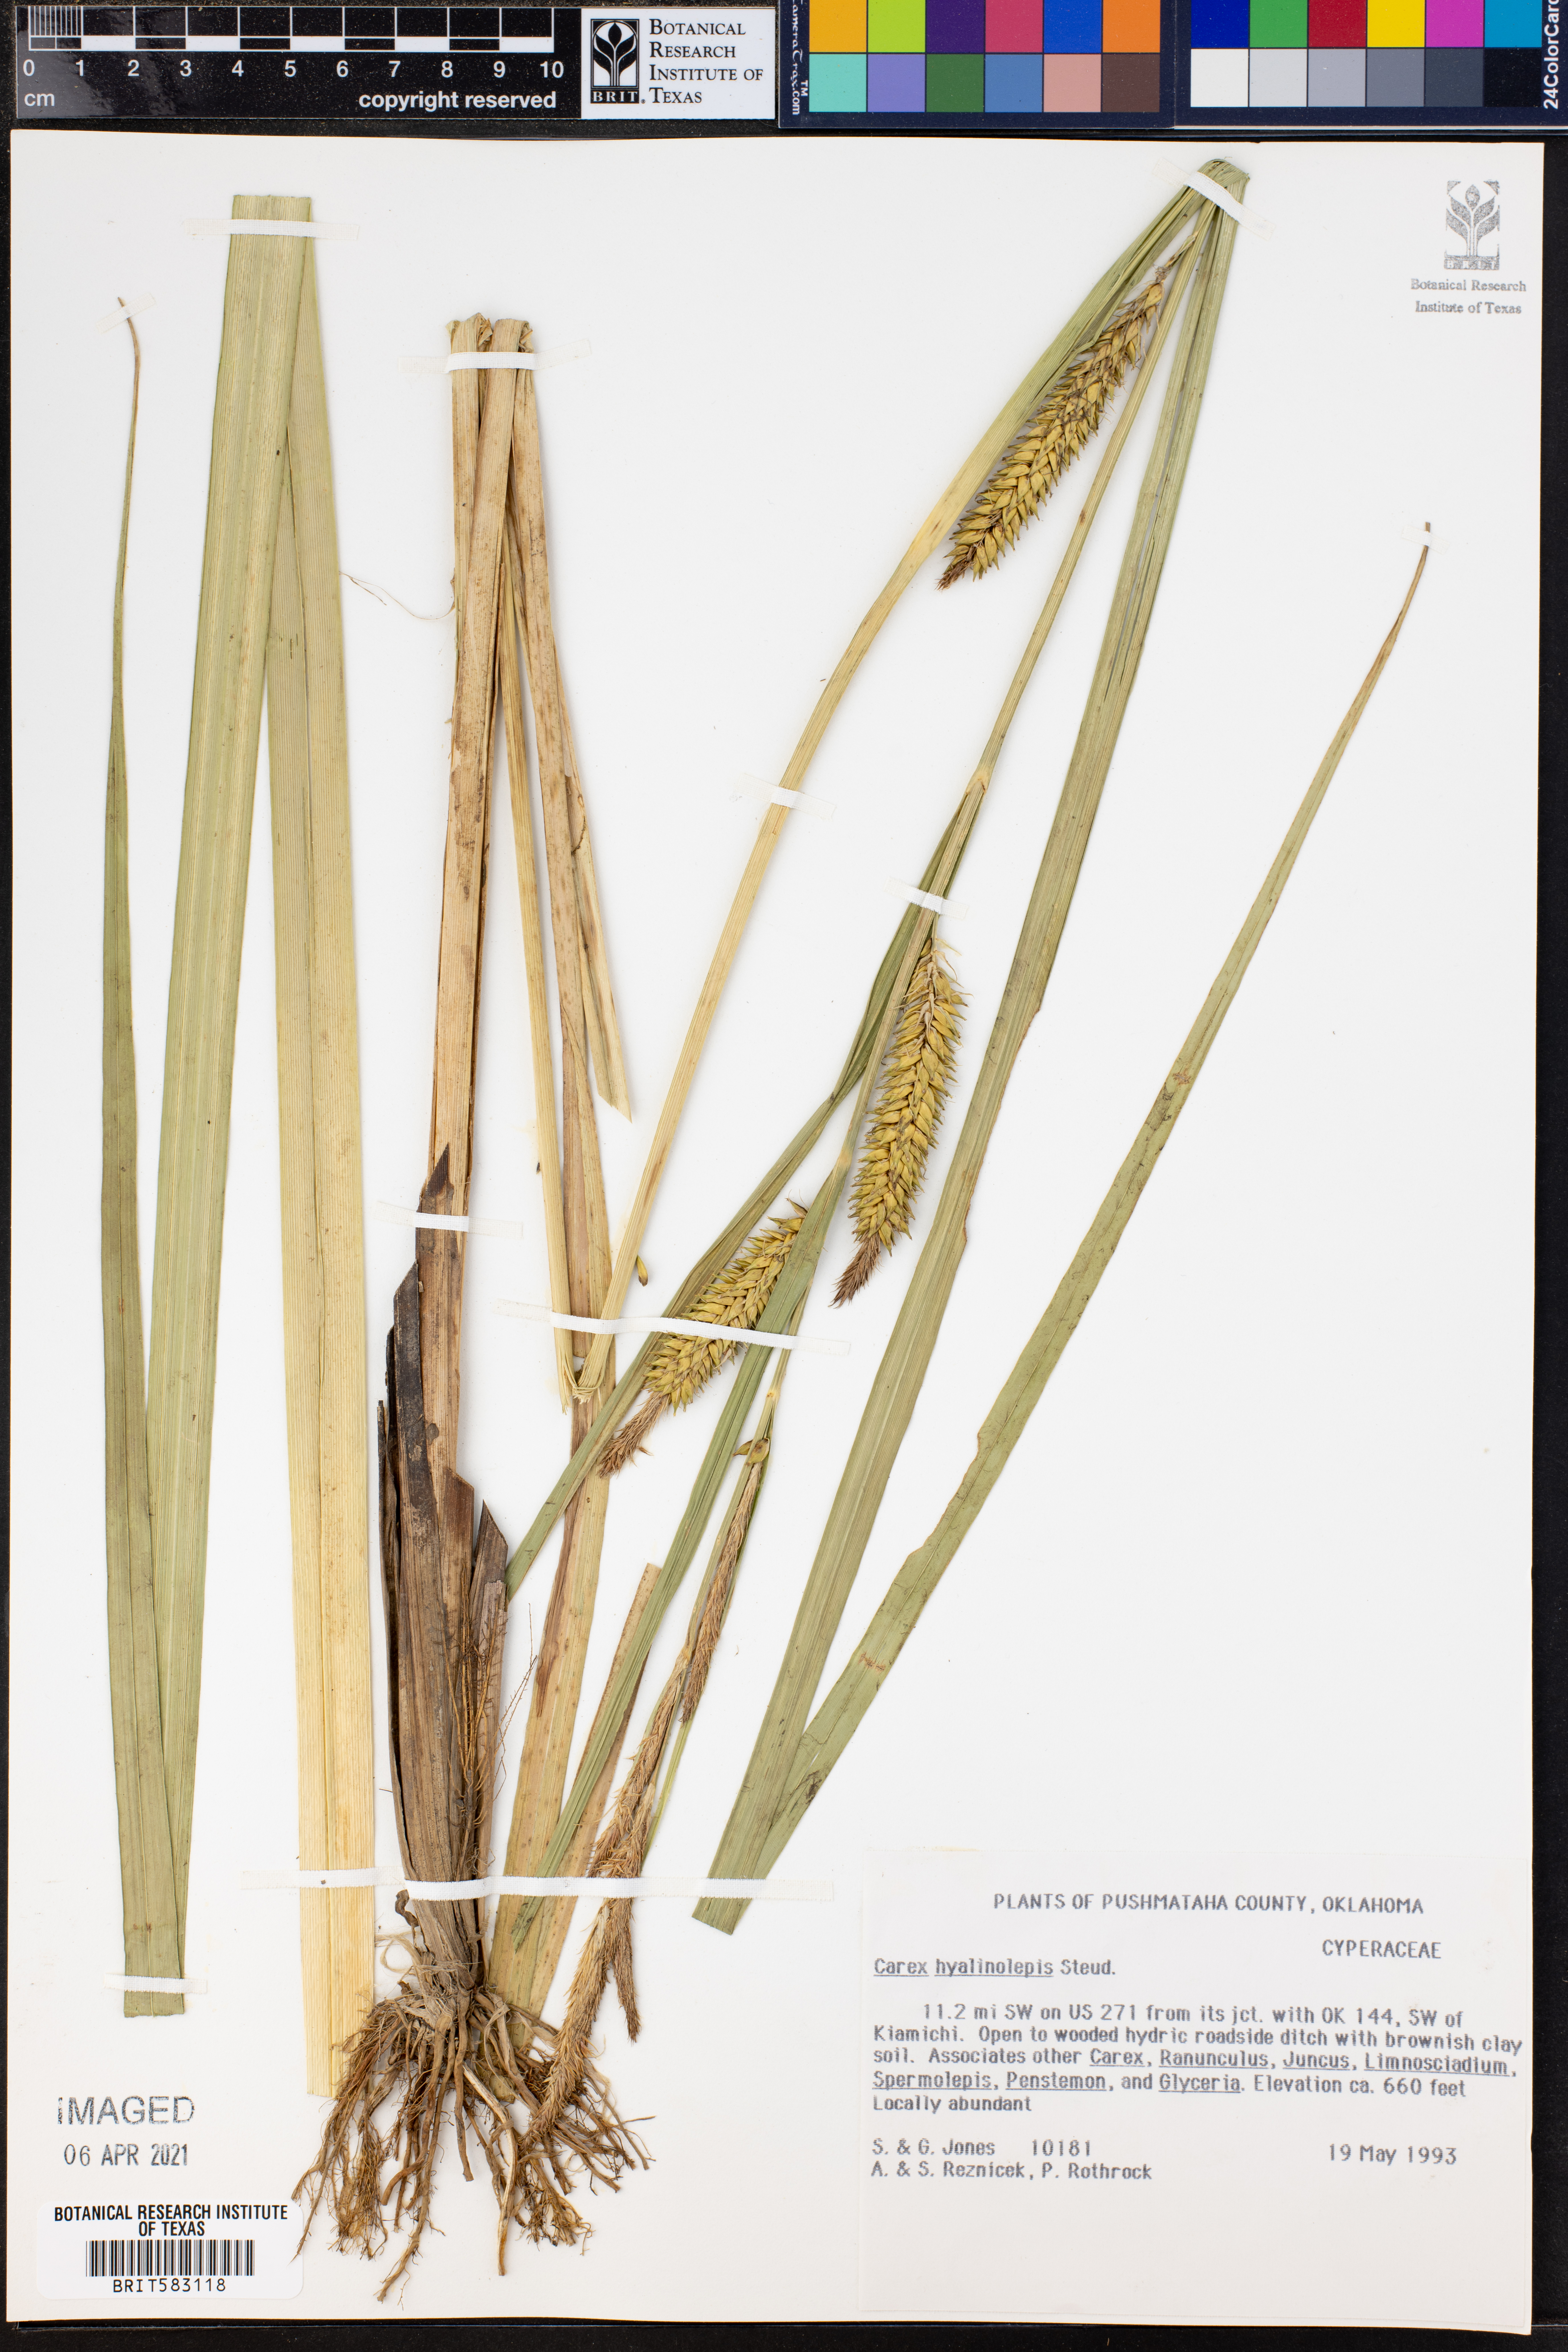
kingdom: Plantae
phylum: Tracheophyta
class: Liliopsida
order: Poales
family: Cyperaceae
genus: Carex
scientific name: Carex hyalinolepis
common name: Shoreline sedge
